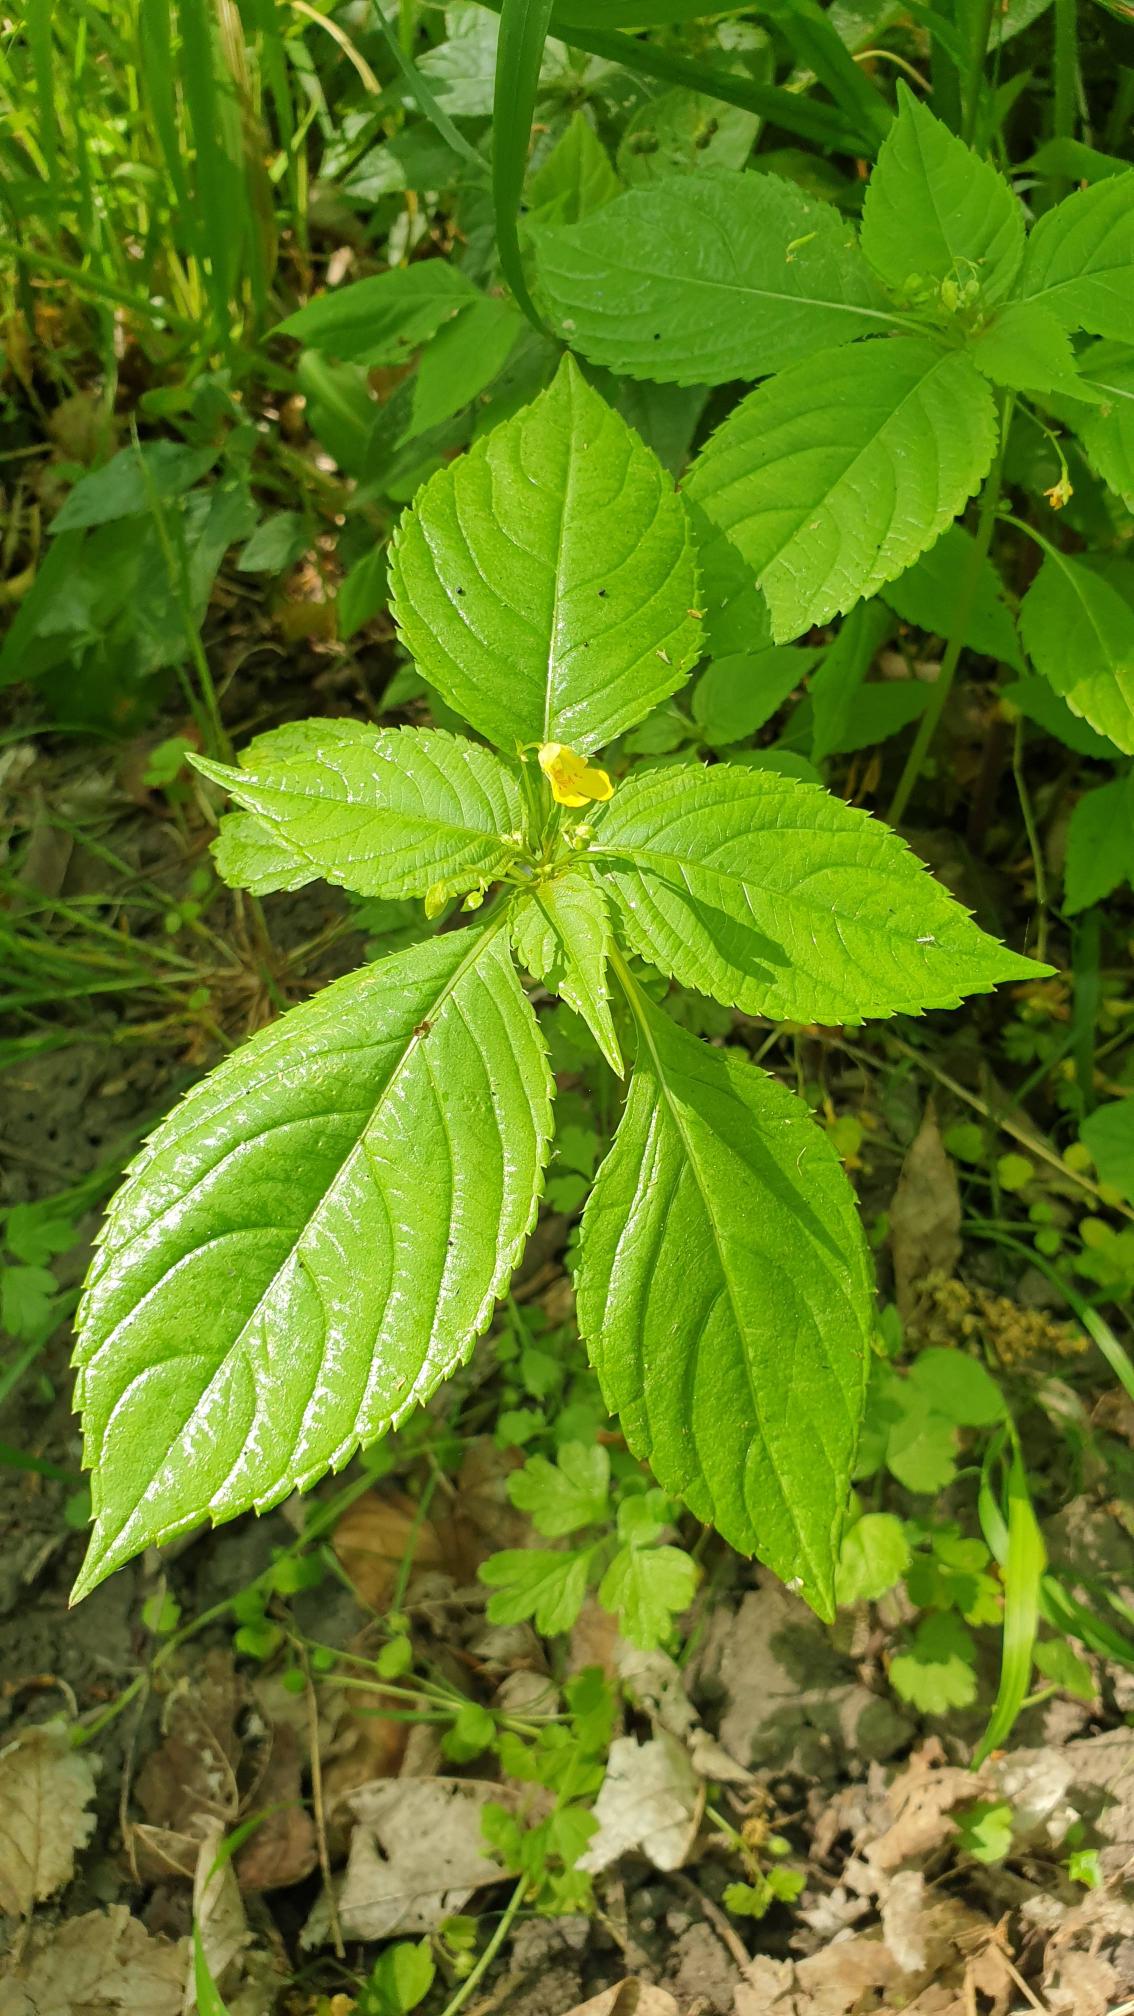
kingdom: Plantae
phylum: Tracheophyta
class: Magnoliopsida
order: Ericales
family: Balsaminaceae
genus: Impatiens
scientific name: Impatiens parviflora
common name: Småblomstret balsamin
